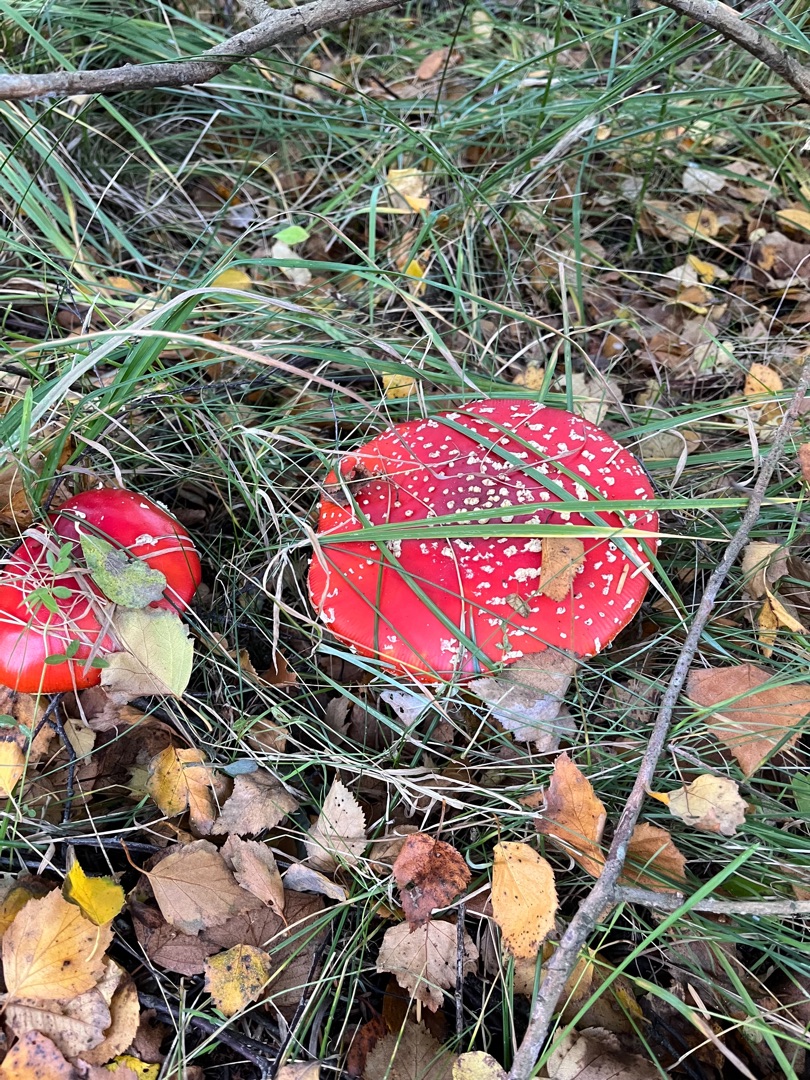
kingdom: Fungi
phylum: Basidiomycota
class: Agaricomycetes
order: Agaricales
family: Amanitaceae
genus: Amanita
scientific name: Amanita muscaria
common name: Rød fluesvamp
